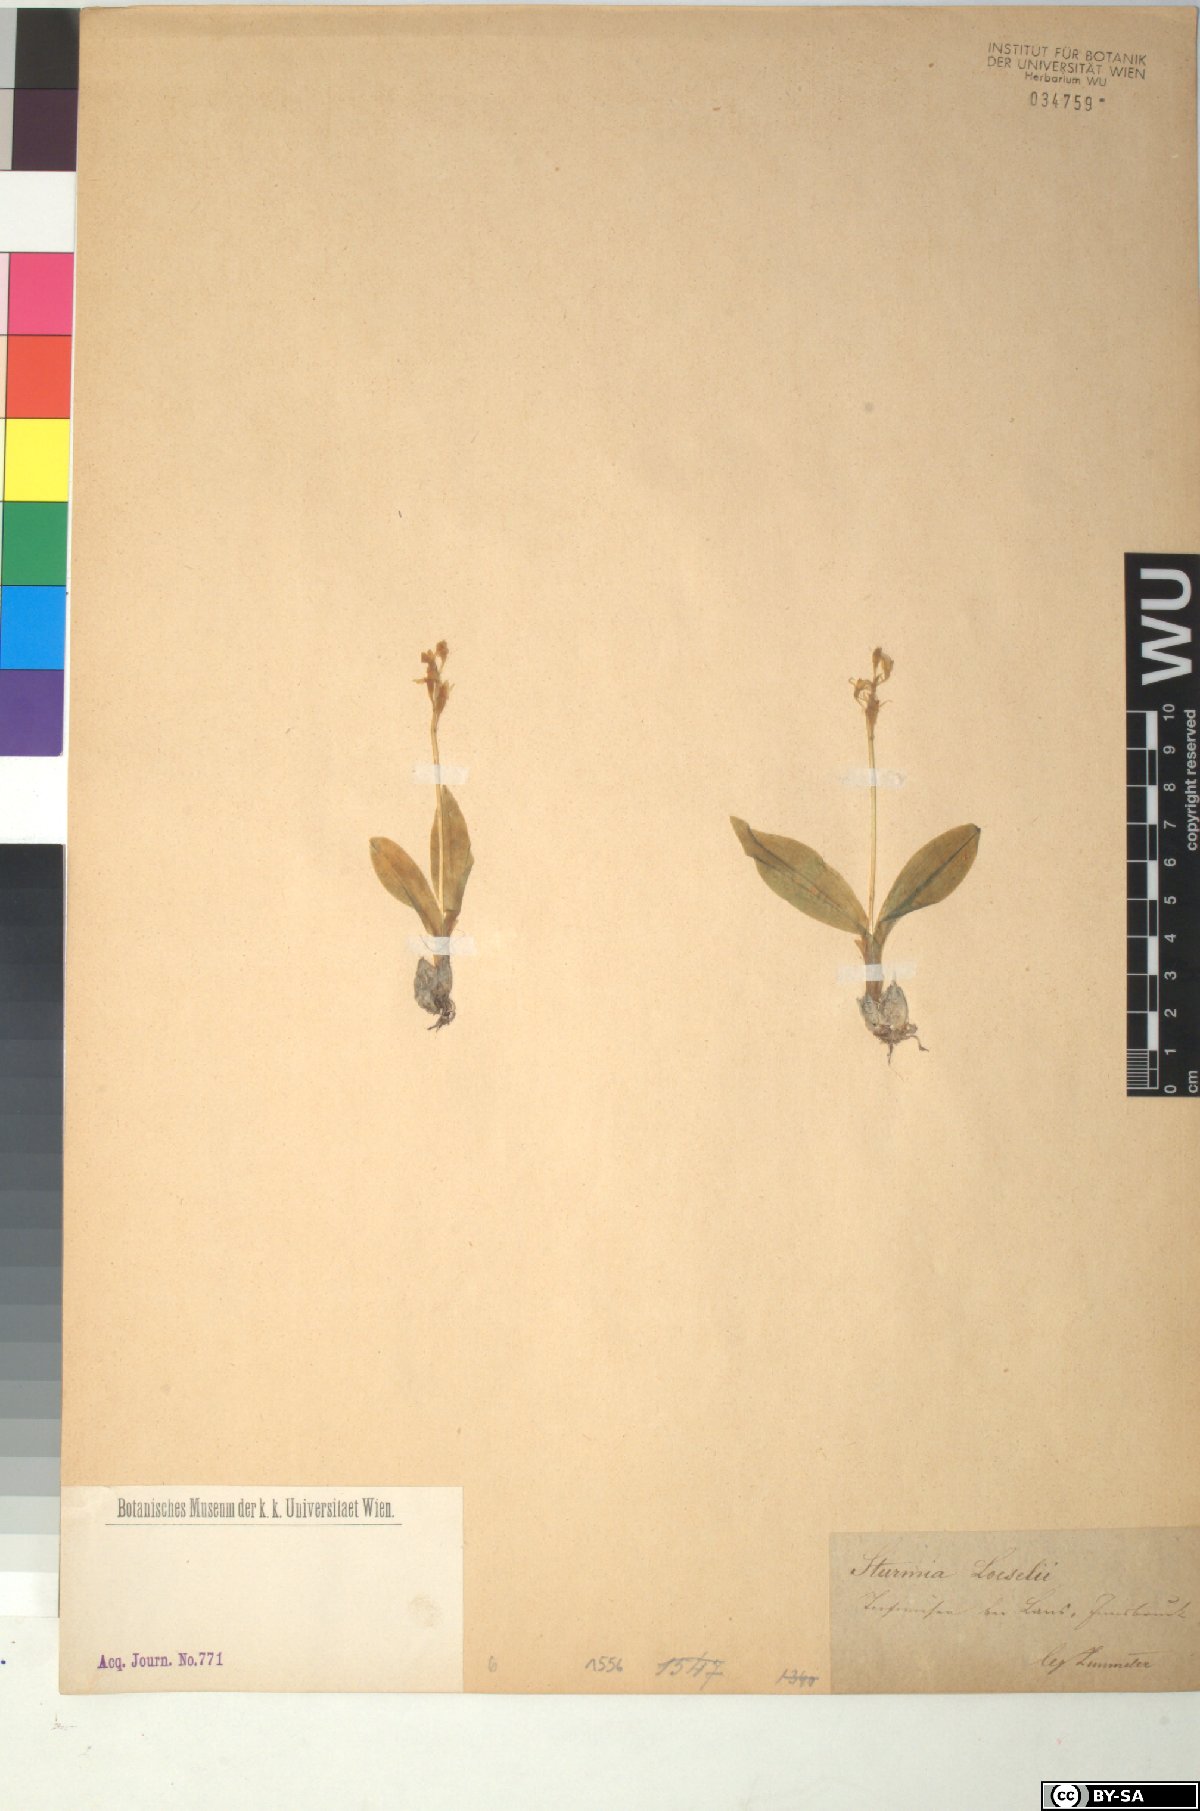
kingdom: Animalia
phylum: Arthropoda
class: Insecta
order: Coleoptera
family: Curculionidae
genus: Liparis
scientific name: Liparis loeselii
